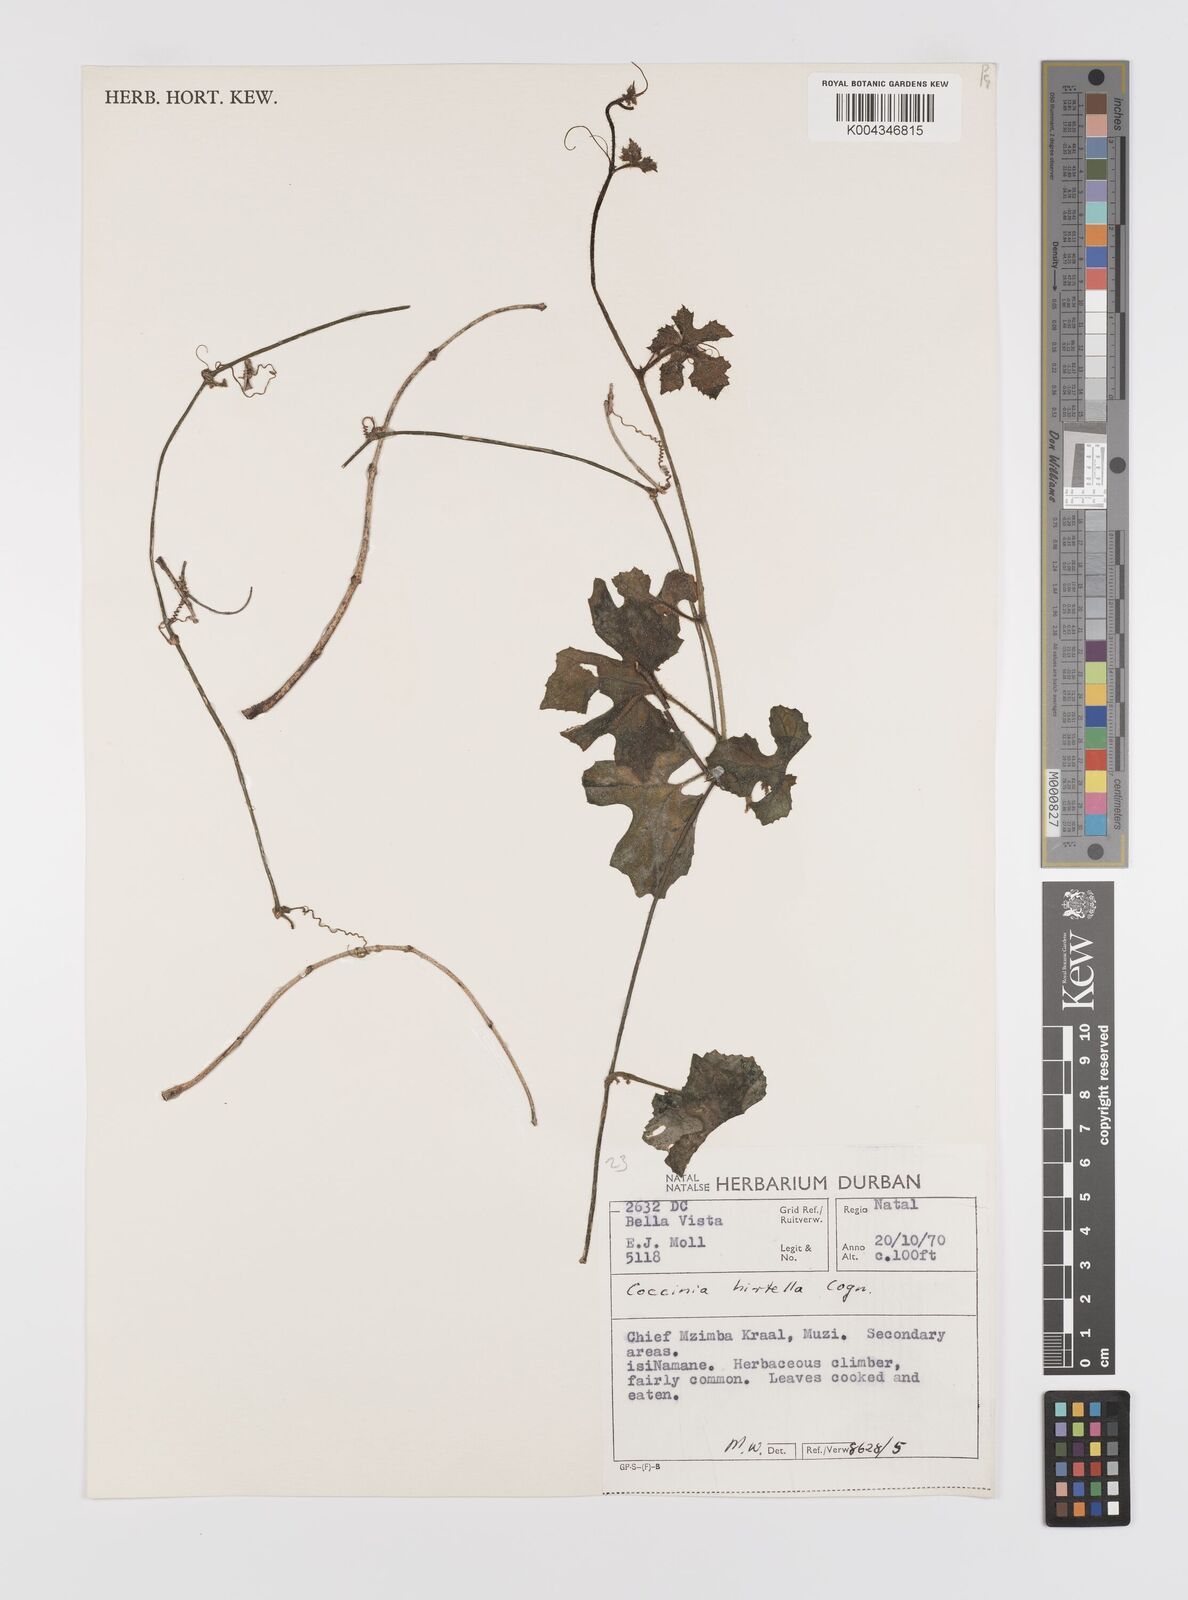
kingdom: Plantae
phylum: Tracheophyta
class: Magnoliopsida
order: Cucurbitales
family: Cucurbitaceae
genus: Coccinia
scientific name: Coccinia hirtella
